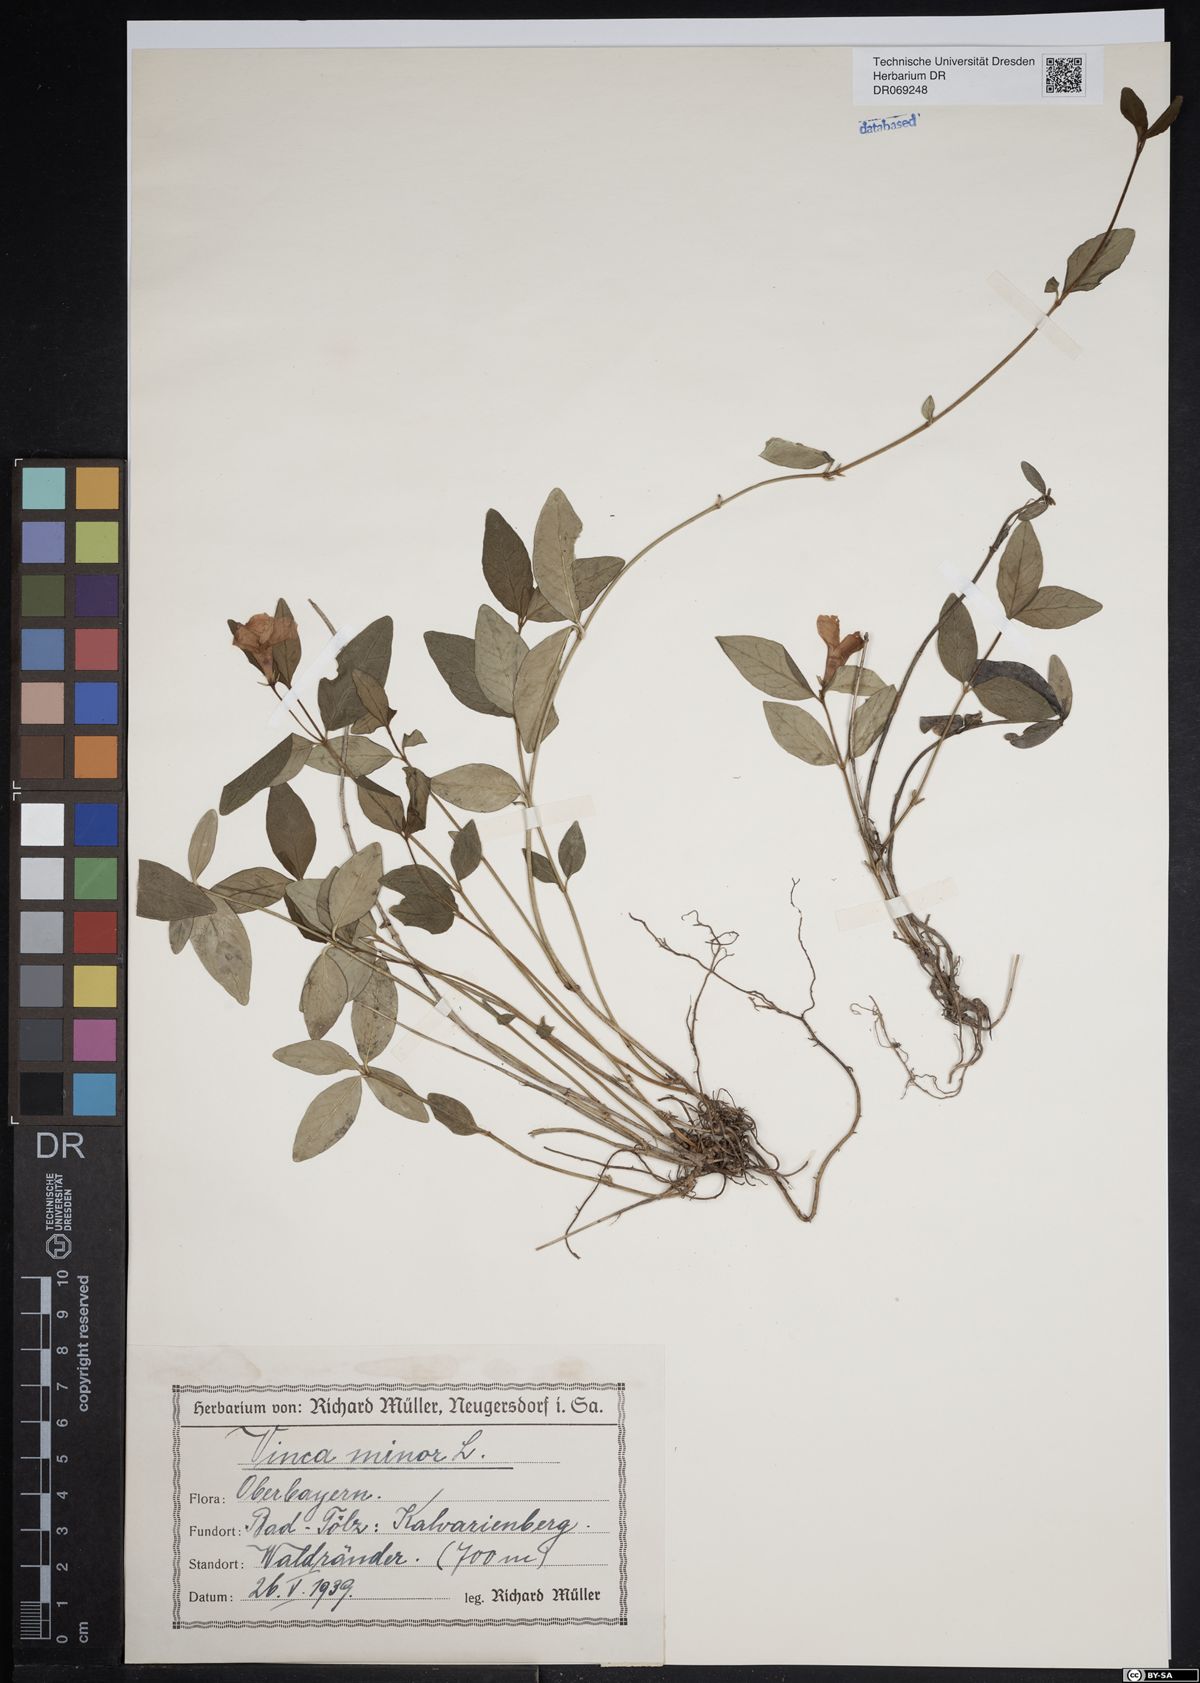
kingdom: Plantae
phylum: Tracheophyta
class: Magnoliopsida
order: Gentianales
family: Apocynaceae
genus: Vinca
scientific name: Vinca minor
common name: Lesser periwinkle
